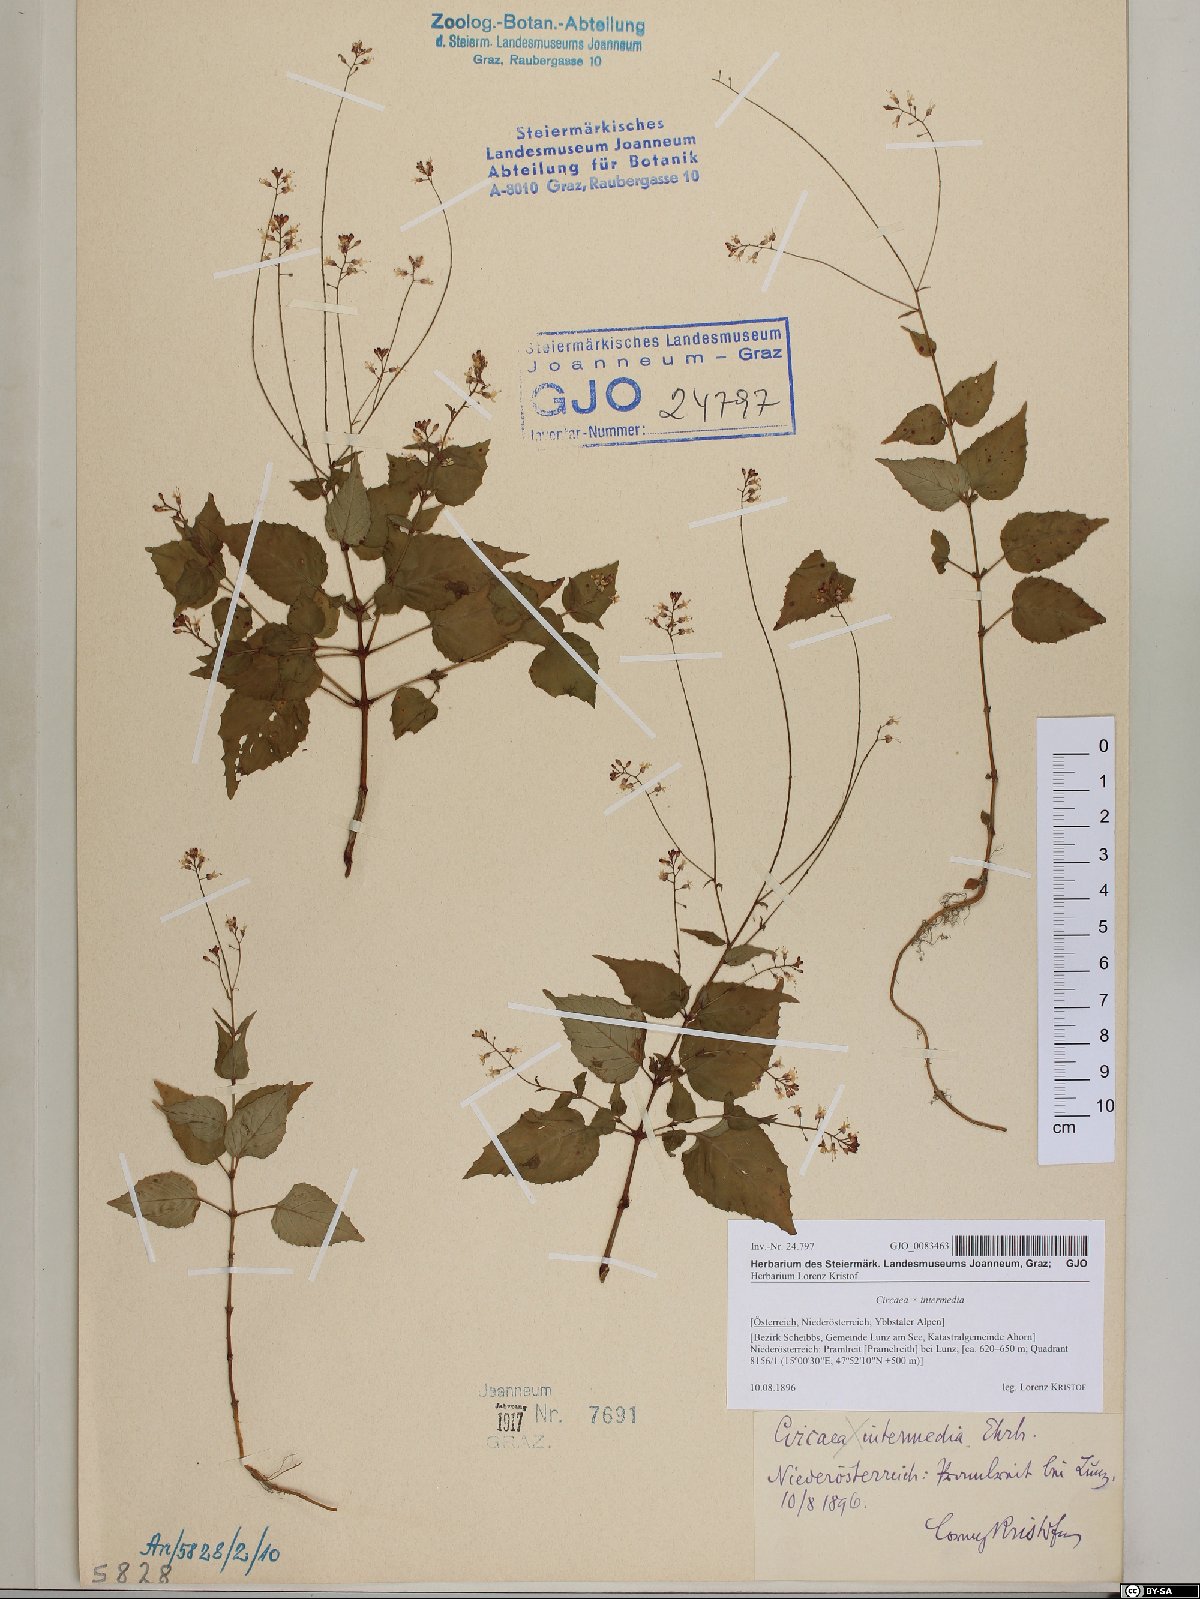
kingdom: Plantae
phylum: Tracheophyta
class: Magnoliopsida
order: Myrtales
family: Onagraceae
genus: Circaea
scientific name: Circaea intermedia
